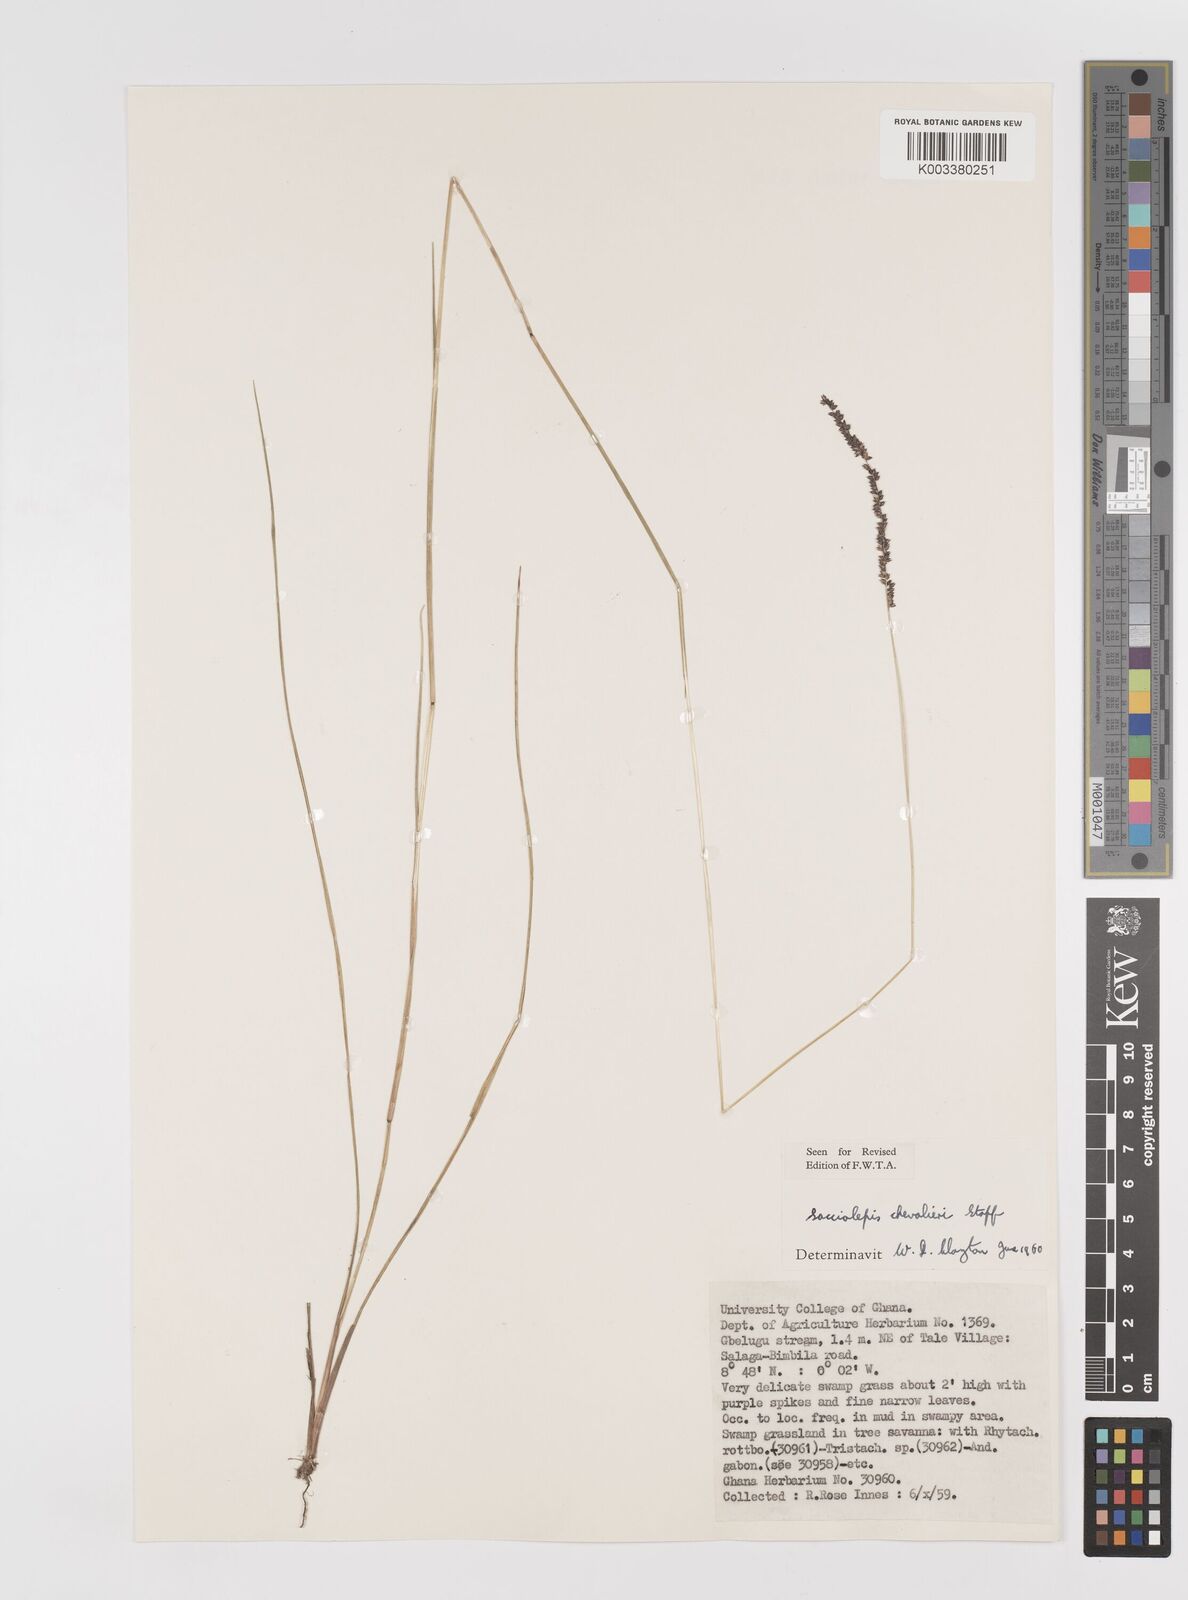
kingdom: Plantae
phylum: Tracheophyta
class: Liliopsida
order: Poales
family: Poaceae
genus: Sacciolepis
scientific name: Sacciolepis chevalieri
